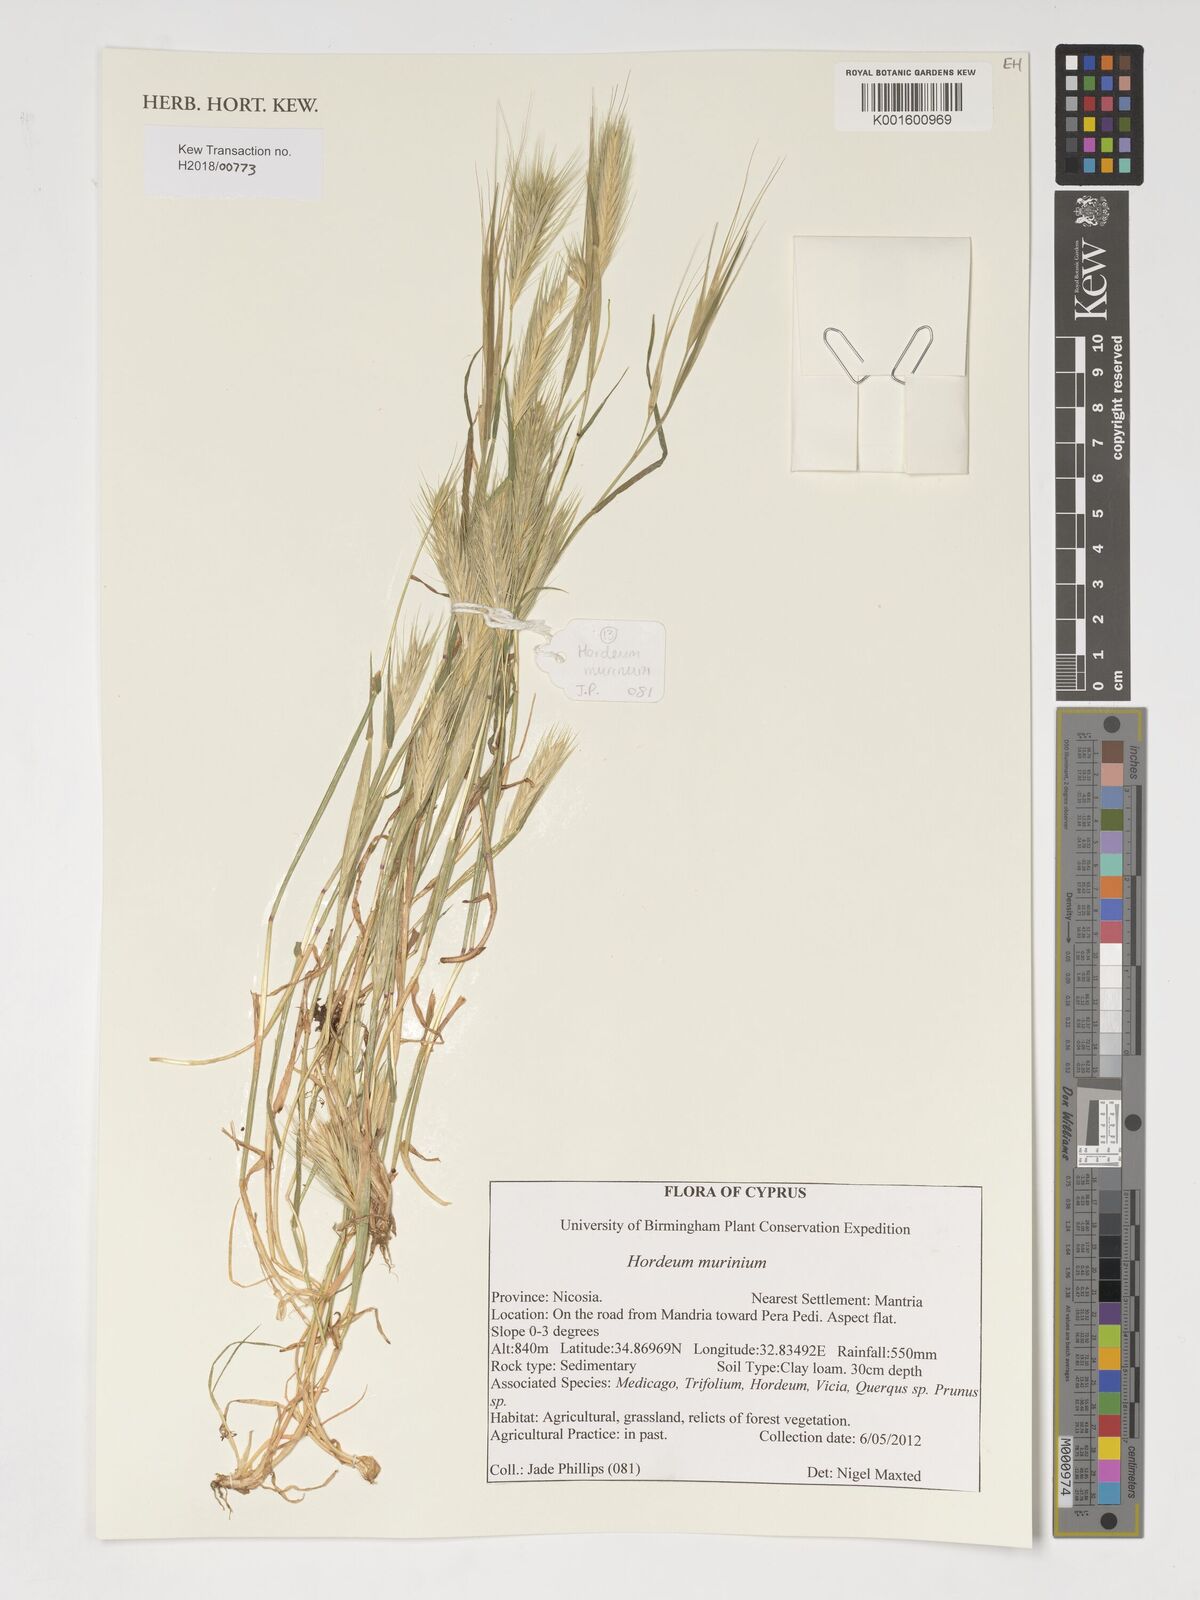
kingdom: Plantae
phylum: Tracheophyta
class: Liliopsida
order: Poales
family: Poaceae
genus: Hordeum
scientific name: Hordeum murinum
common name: Wall barley
